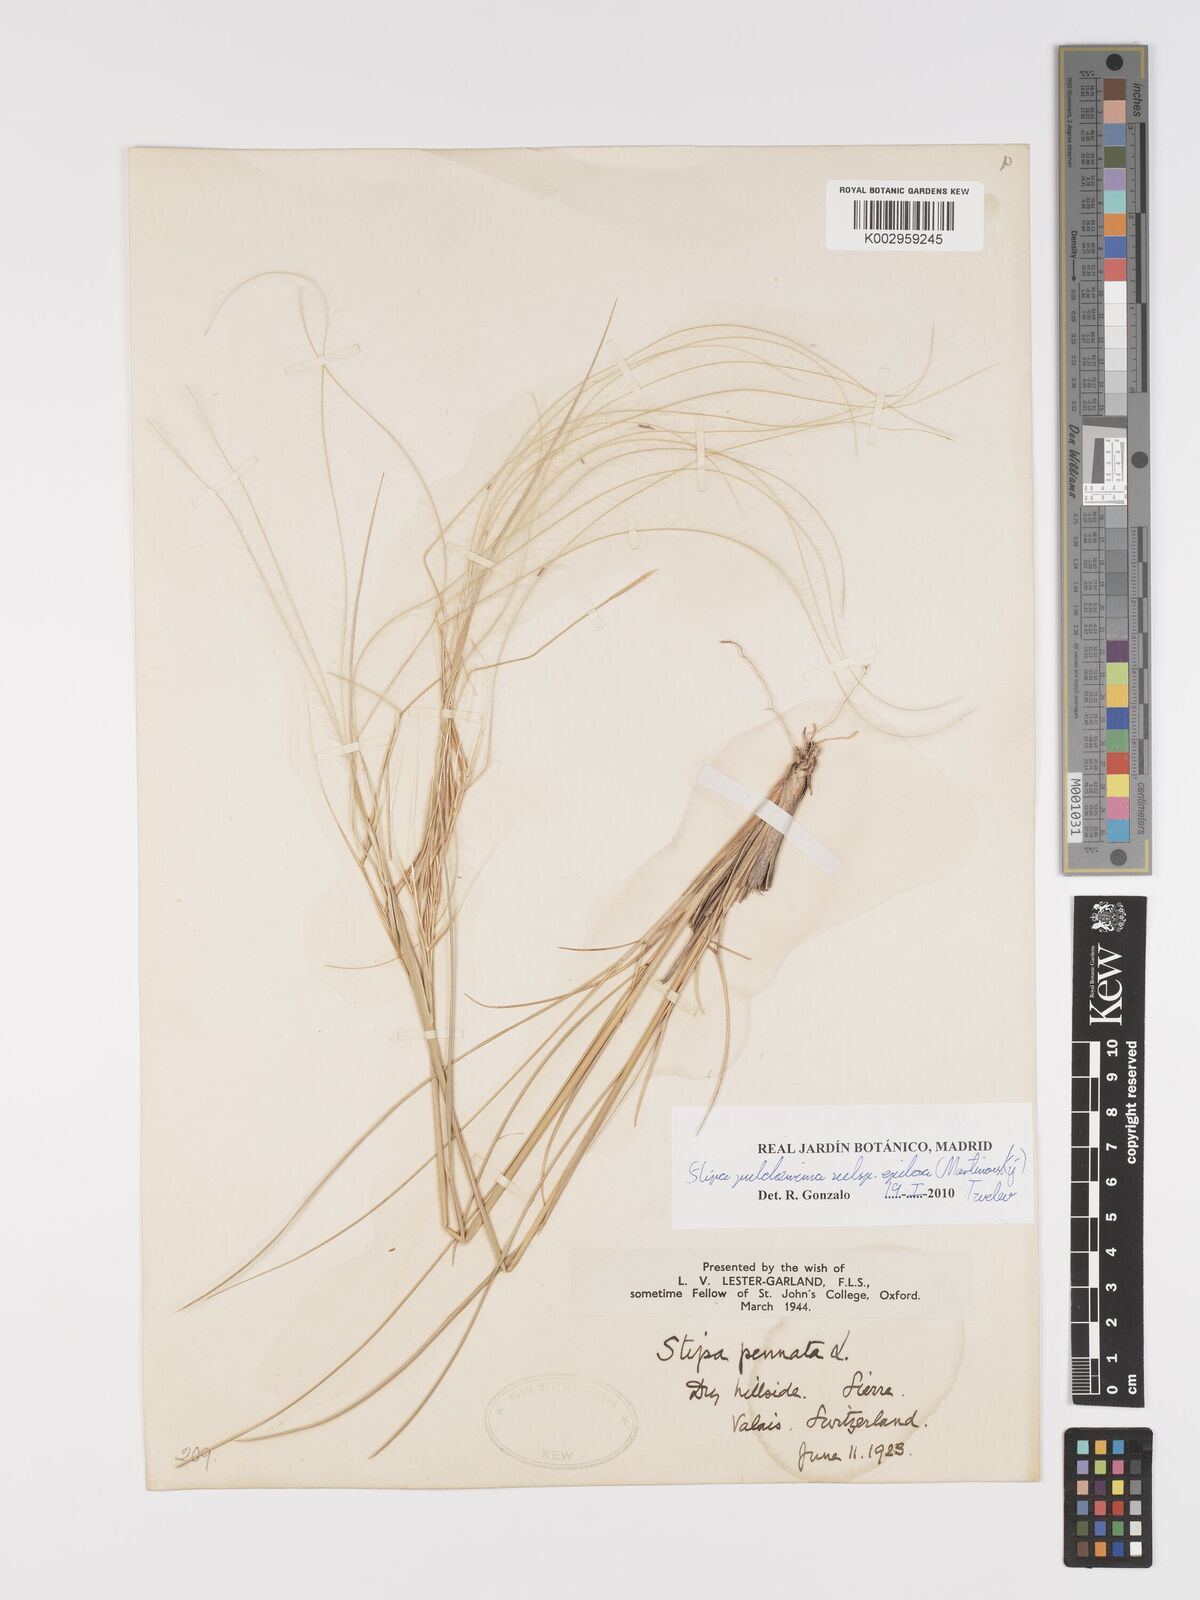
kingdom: Plantae
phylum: Tracheophyta
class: Liliopsida
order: Poales
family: Poaceae
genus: Stipa
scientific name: Stipa pulcherrima
